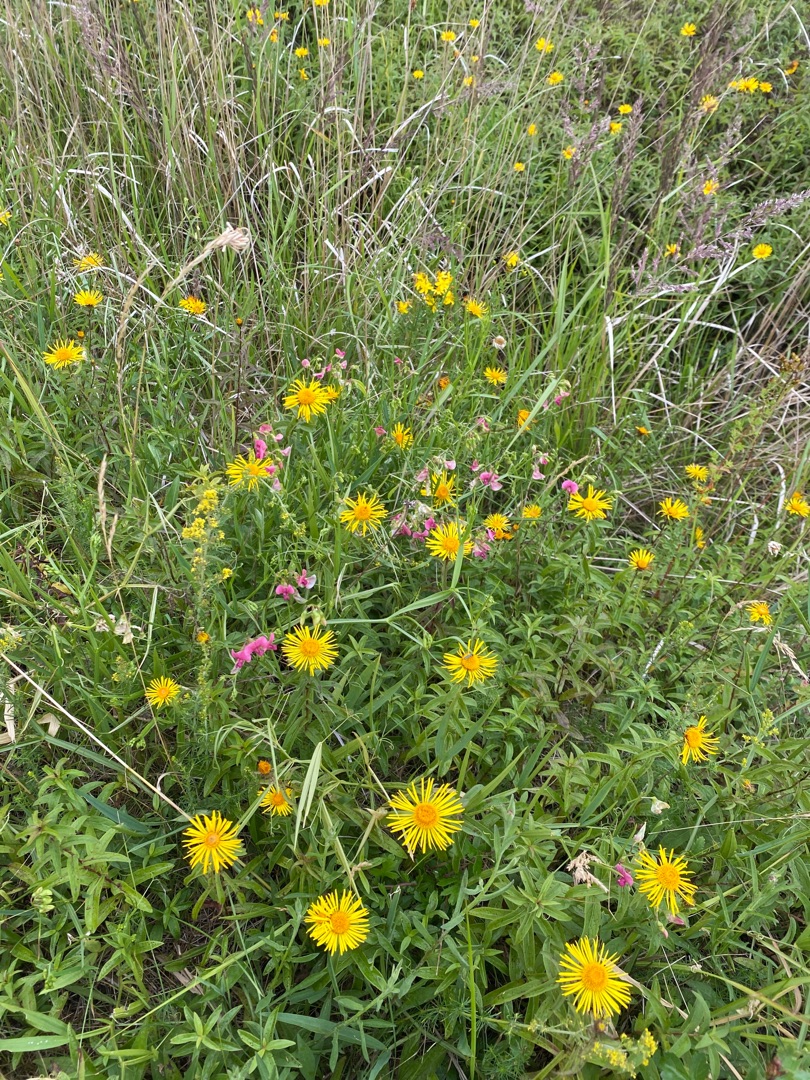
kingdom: Plantae
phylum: Tracheophyta
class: Magnoliopsida
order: Asterales
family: Asteraceae
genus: Pentanema
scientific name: Pentanema salicinum
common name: Pile-alant
